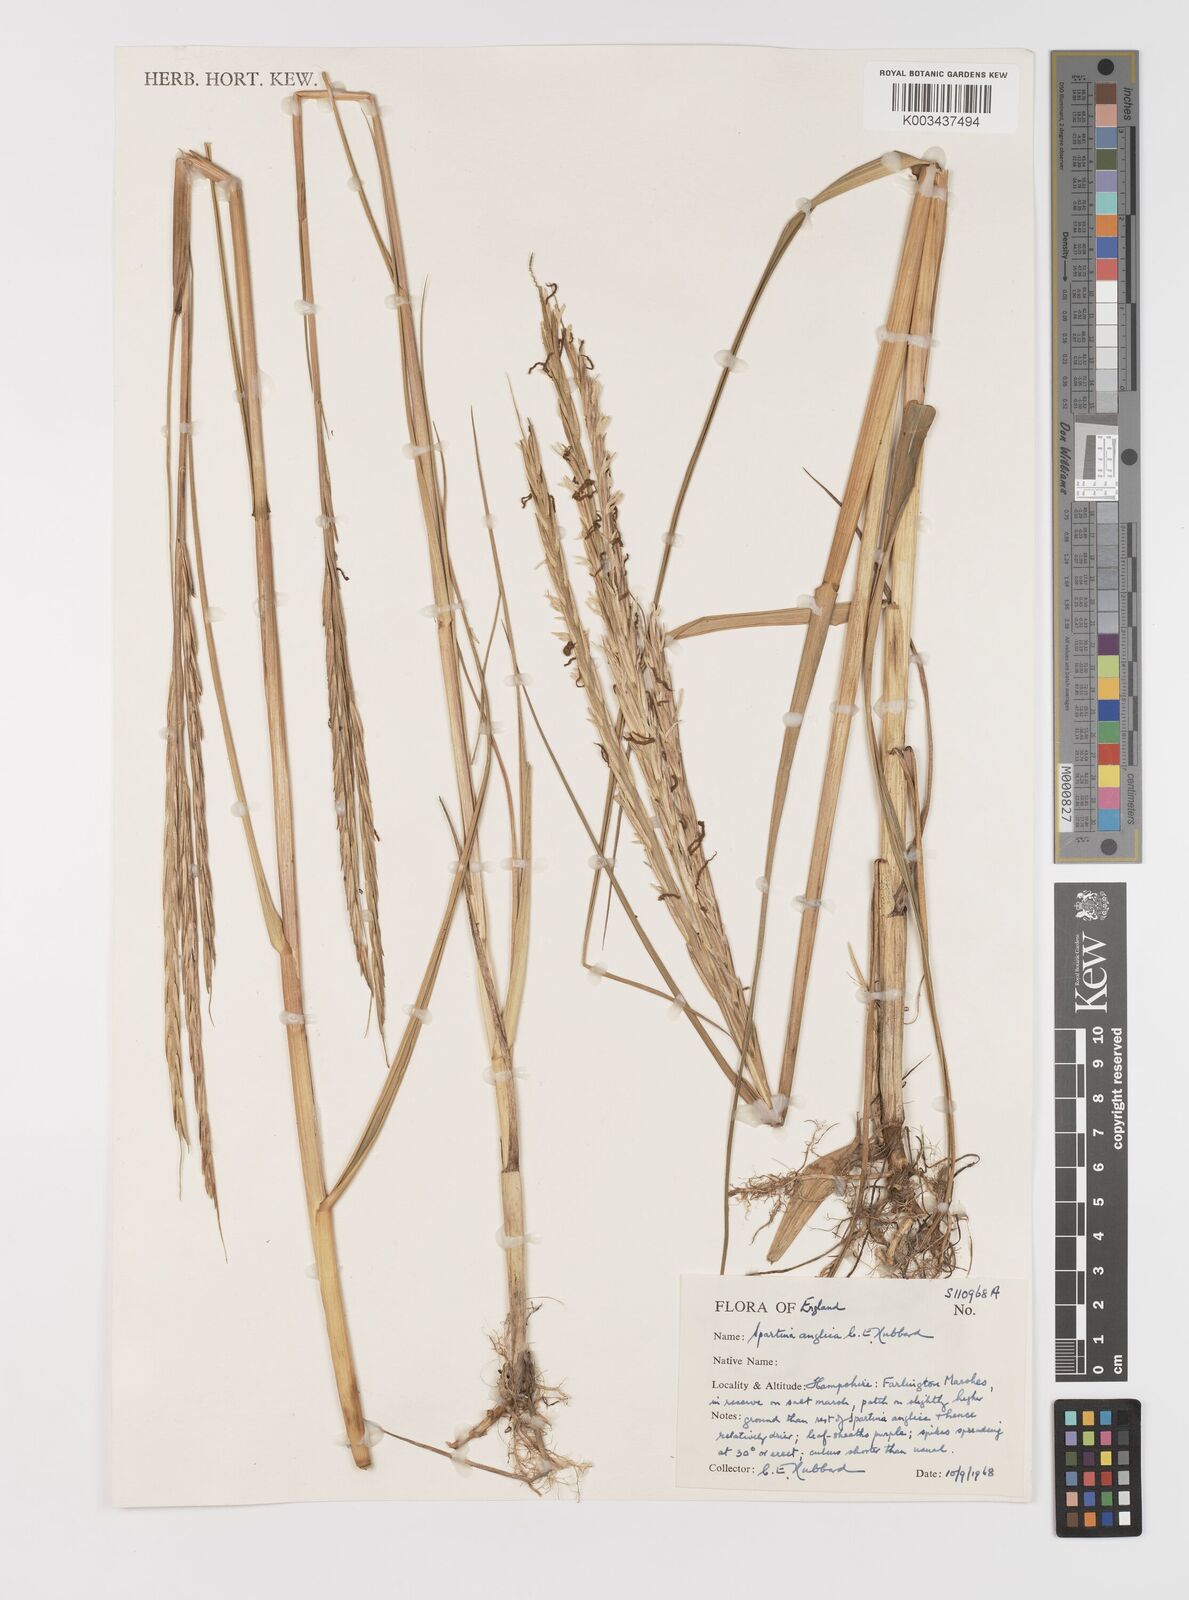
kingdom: Plantae
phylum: Tracheophyta
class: Liliopsida
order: Poales
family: Poaceae
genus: Sporobolus
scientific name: Sporobolus anglicus
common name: English cordgrass
